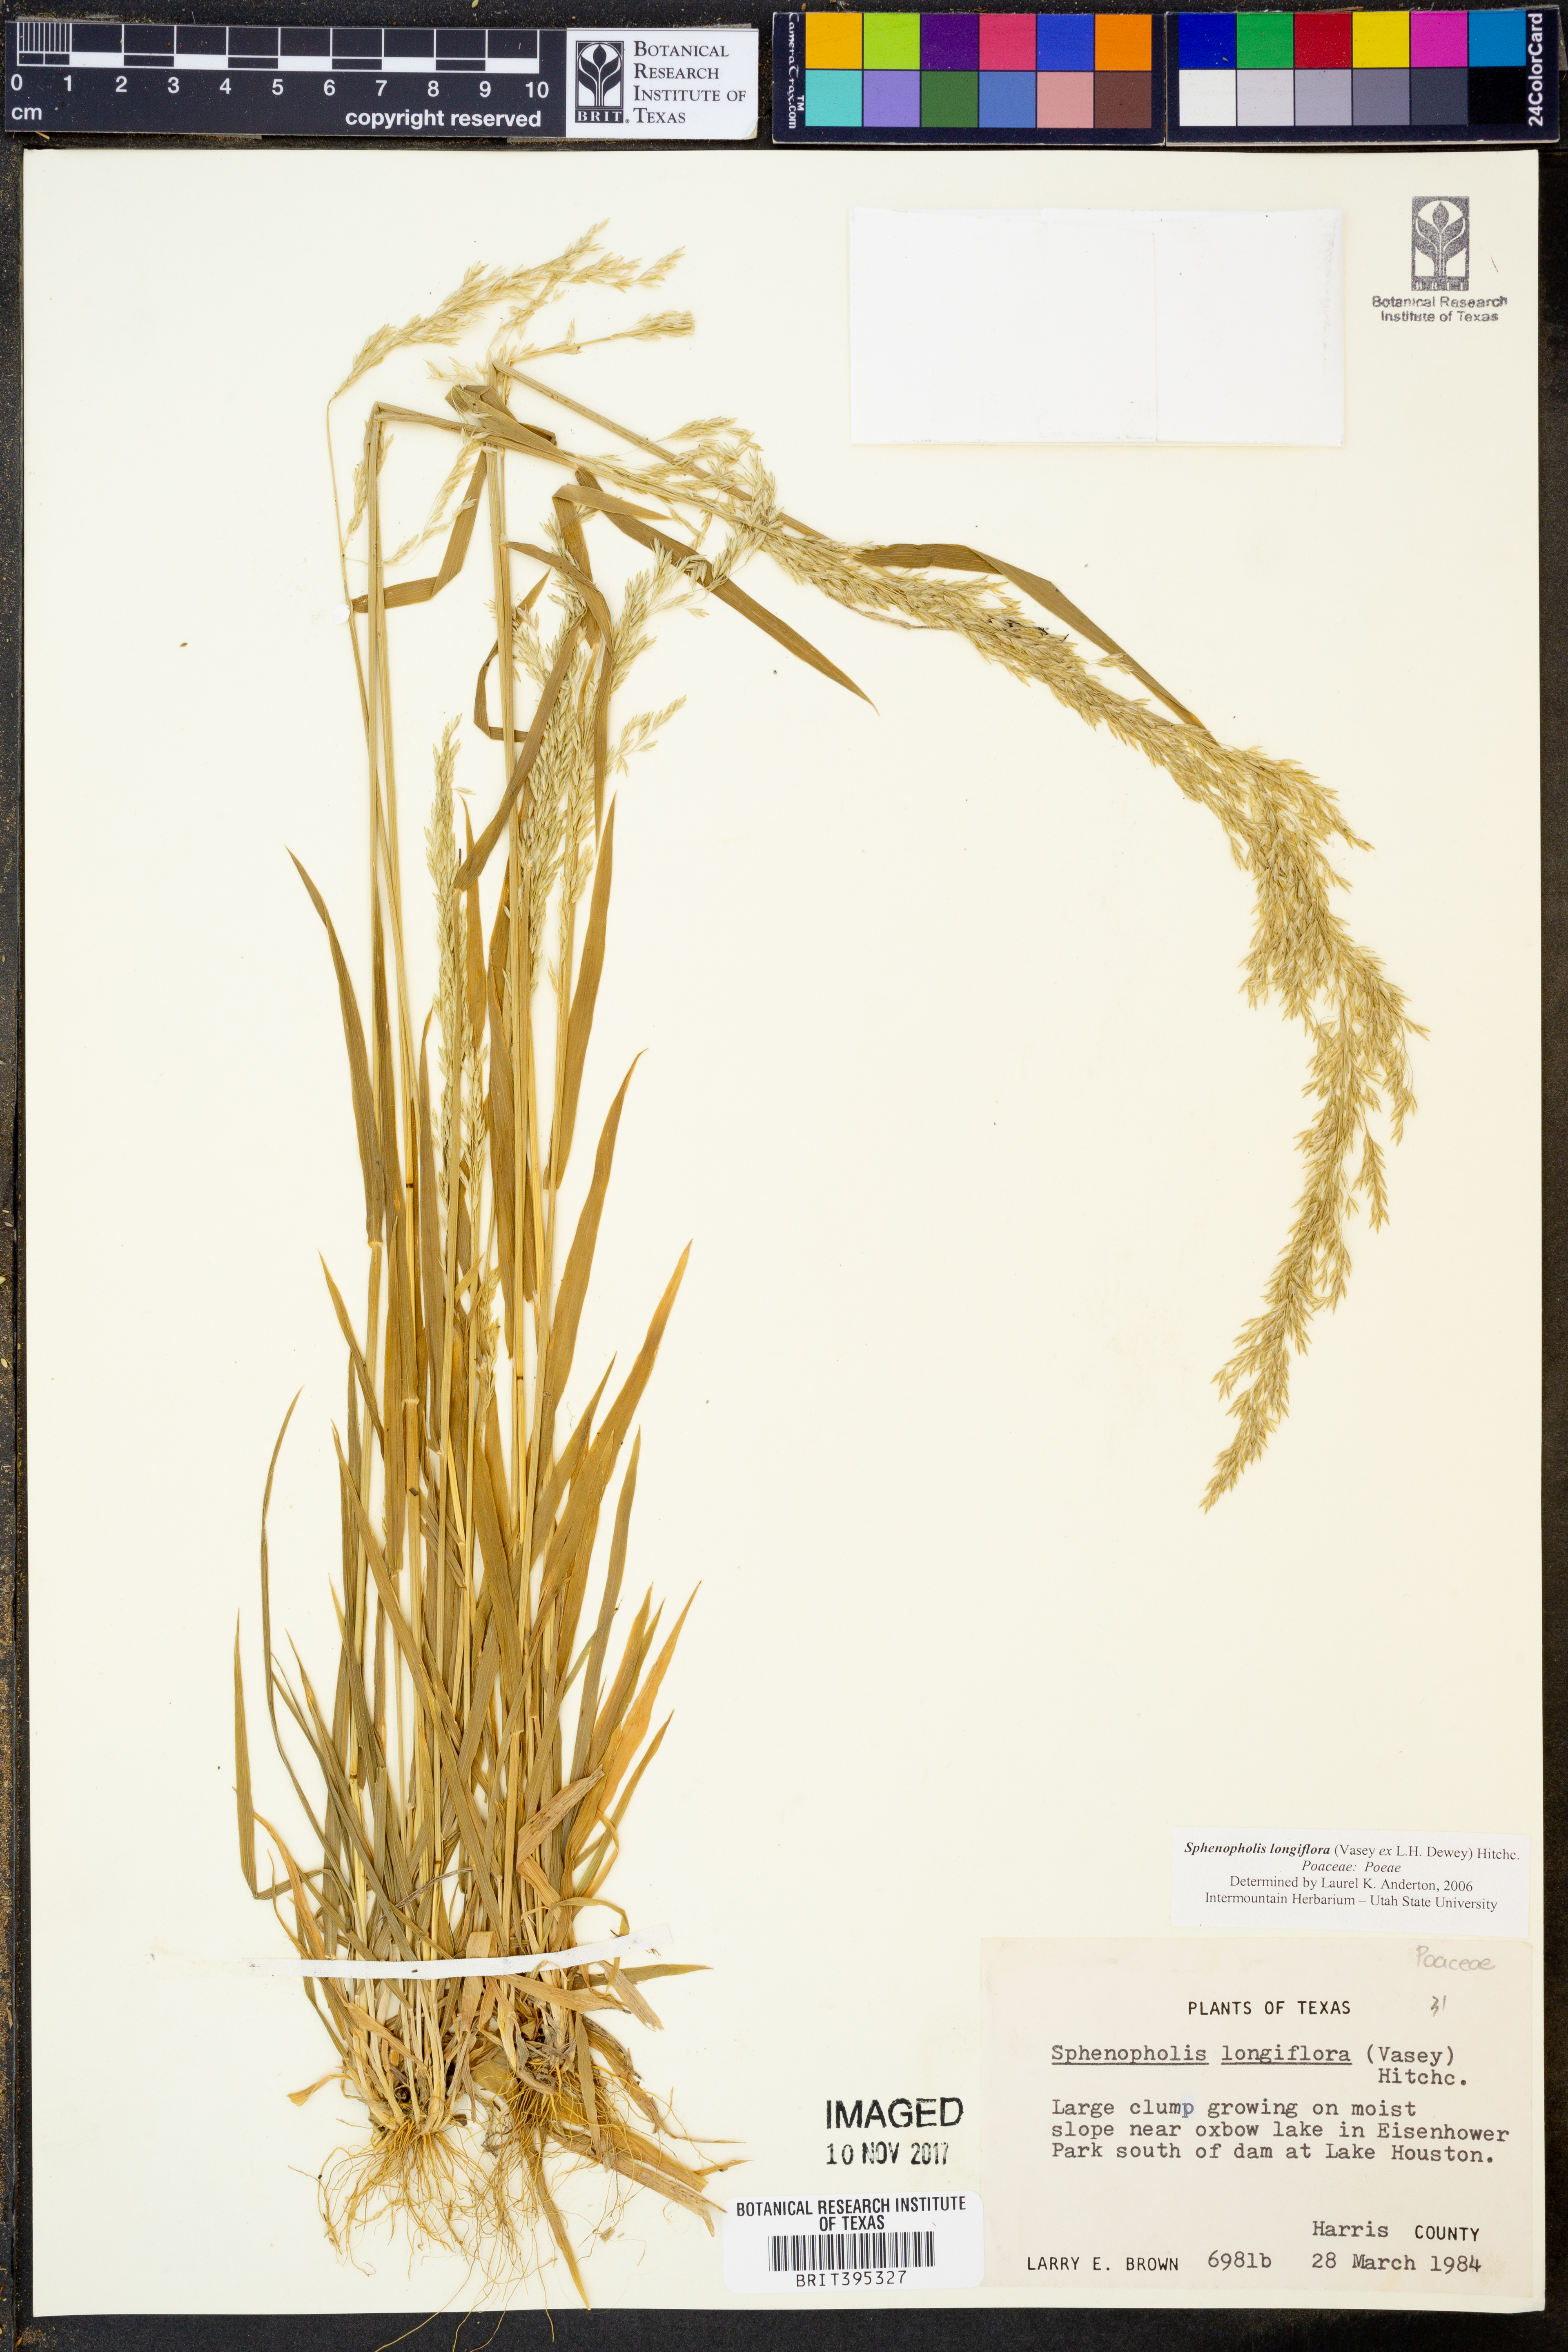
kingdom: Plantae
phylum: Tracheophyta
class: Liliopsida
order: Poales
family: Poaceae
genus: Sphenopholis
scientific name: Sphenopholis intermedia
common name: Intermediate eaton's grass
